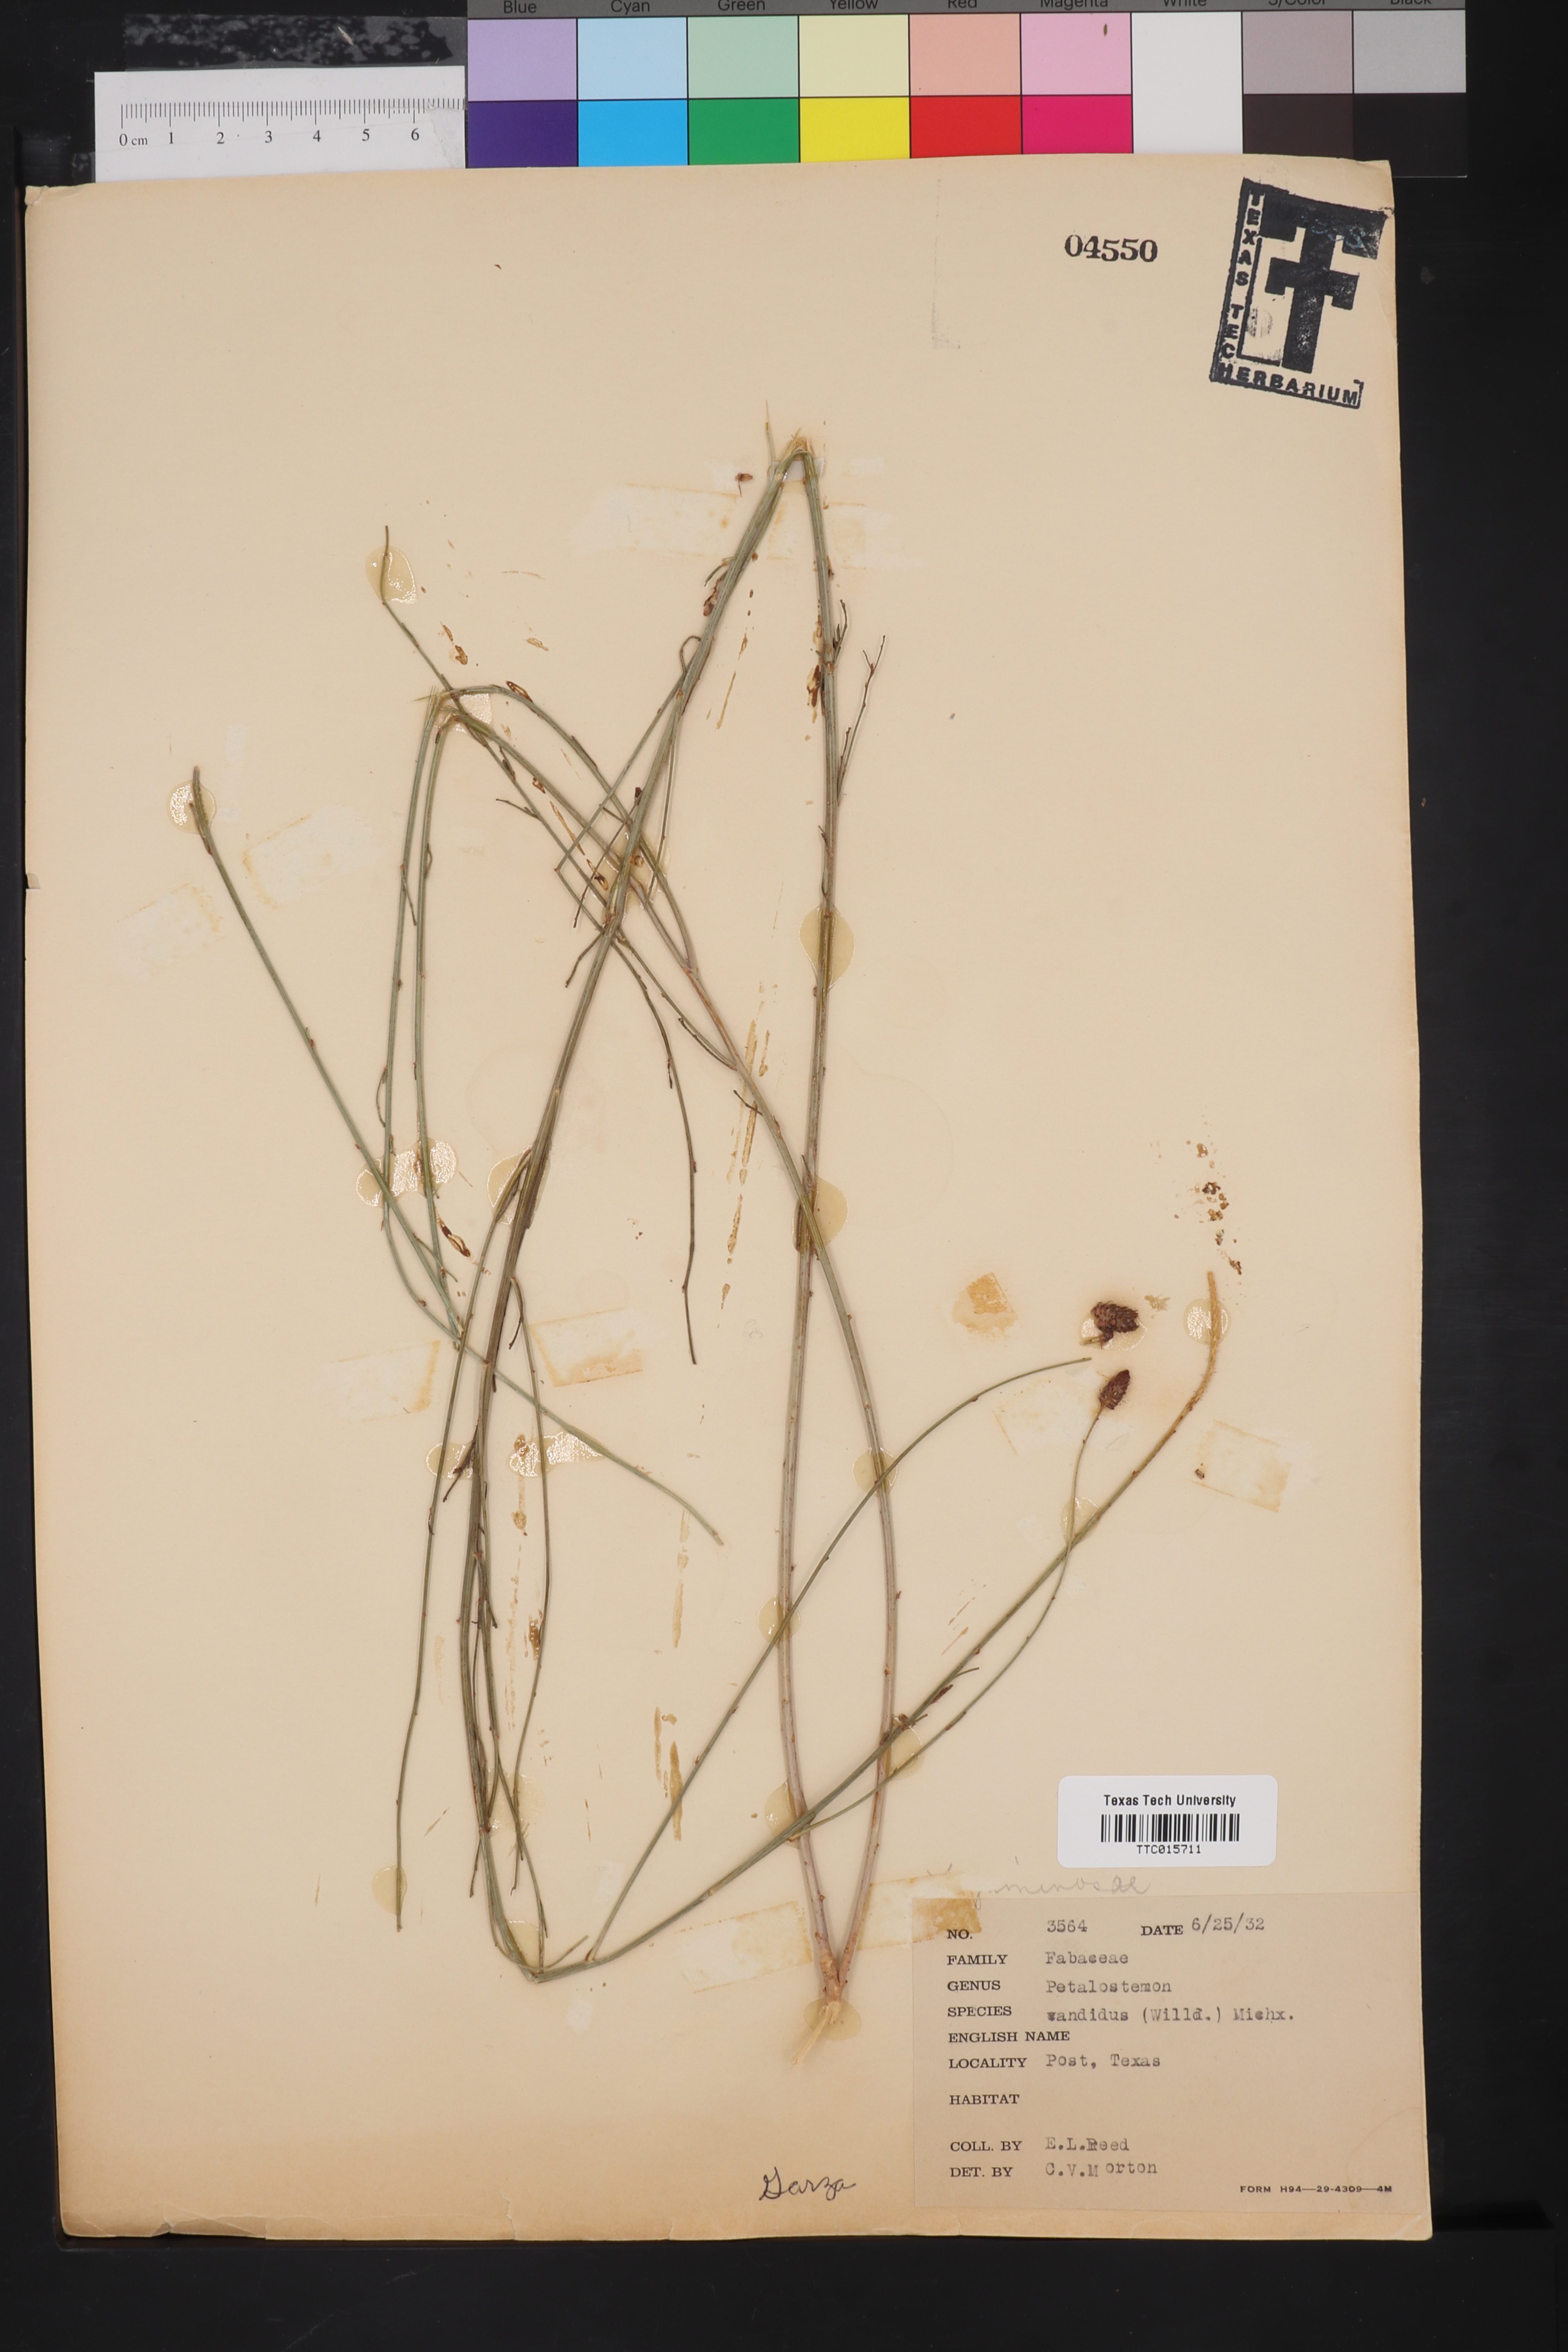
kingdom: Plantae
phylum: Tracheophyta
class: Magnoliopsida
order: Fabales
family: Fabaceae
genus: Petalostemum
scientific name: Petalostemum
